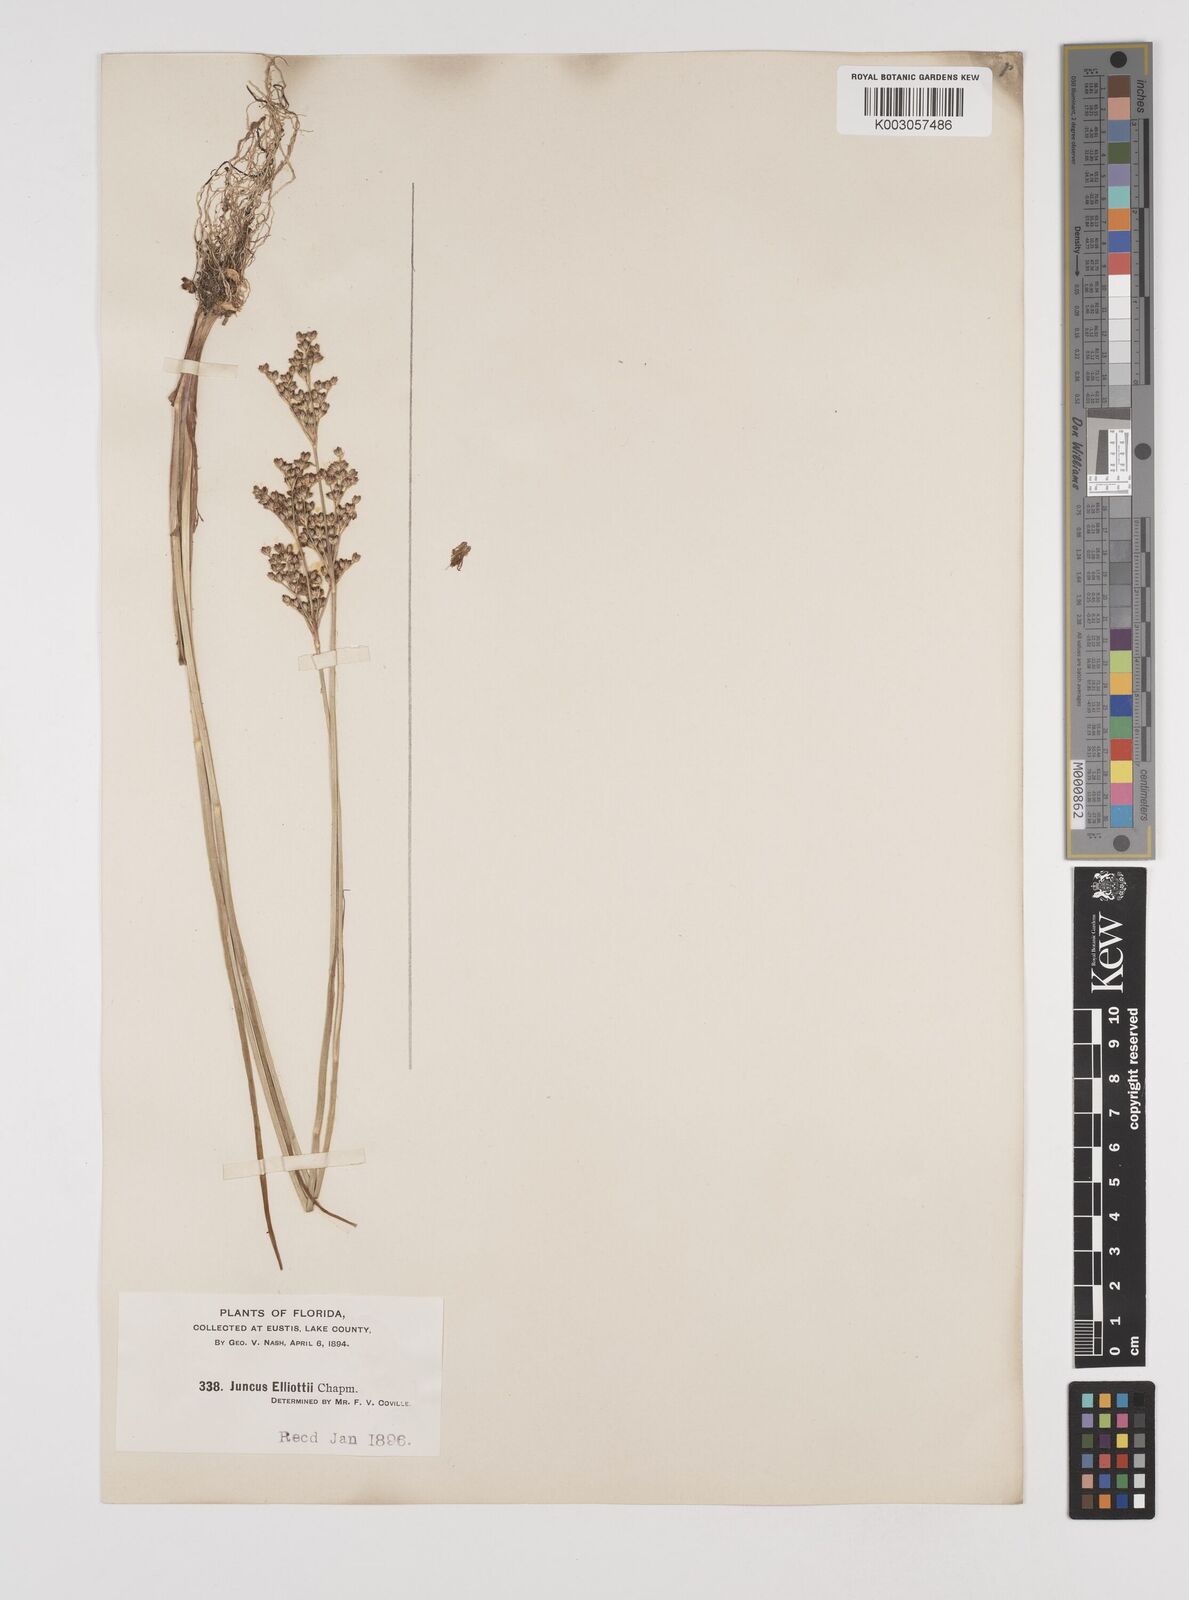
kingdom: Plantae
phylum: Tracheophyta
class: Liliopsida
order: Poales
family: Juncaceae
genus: Juncus
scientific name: Juncus elliottii
